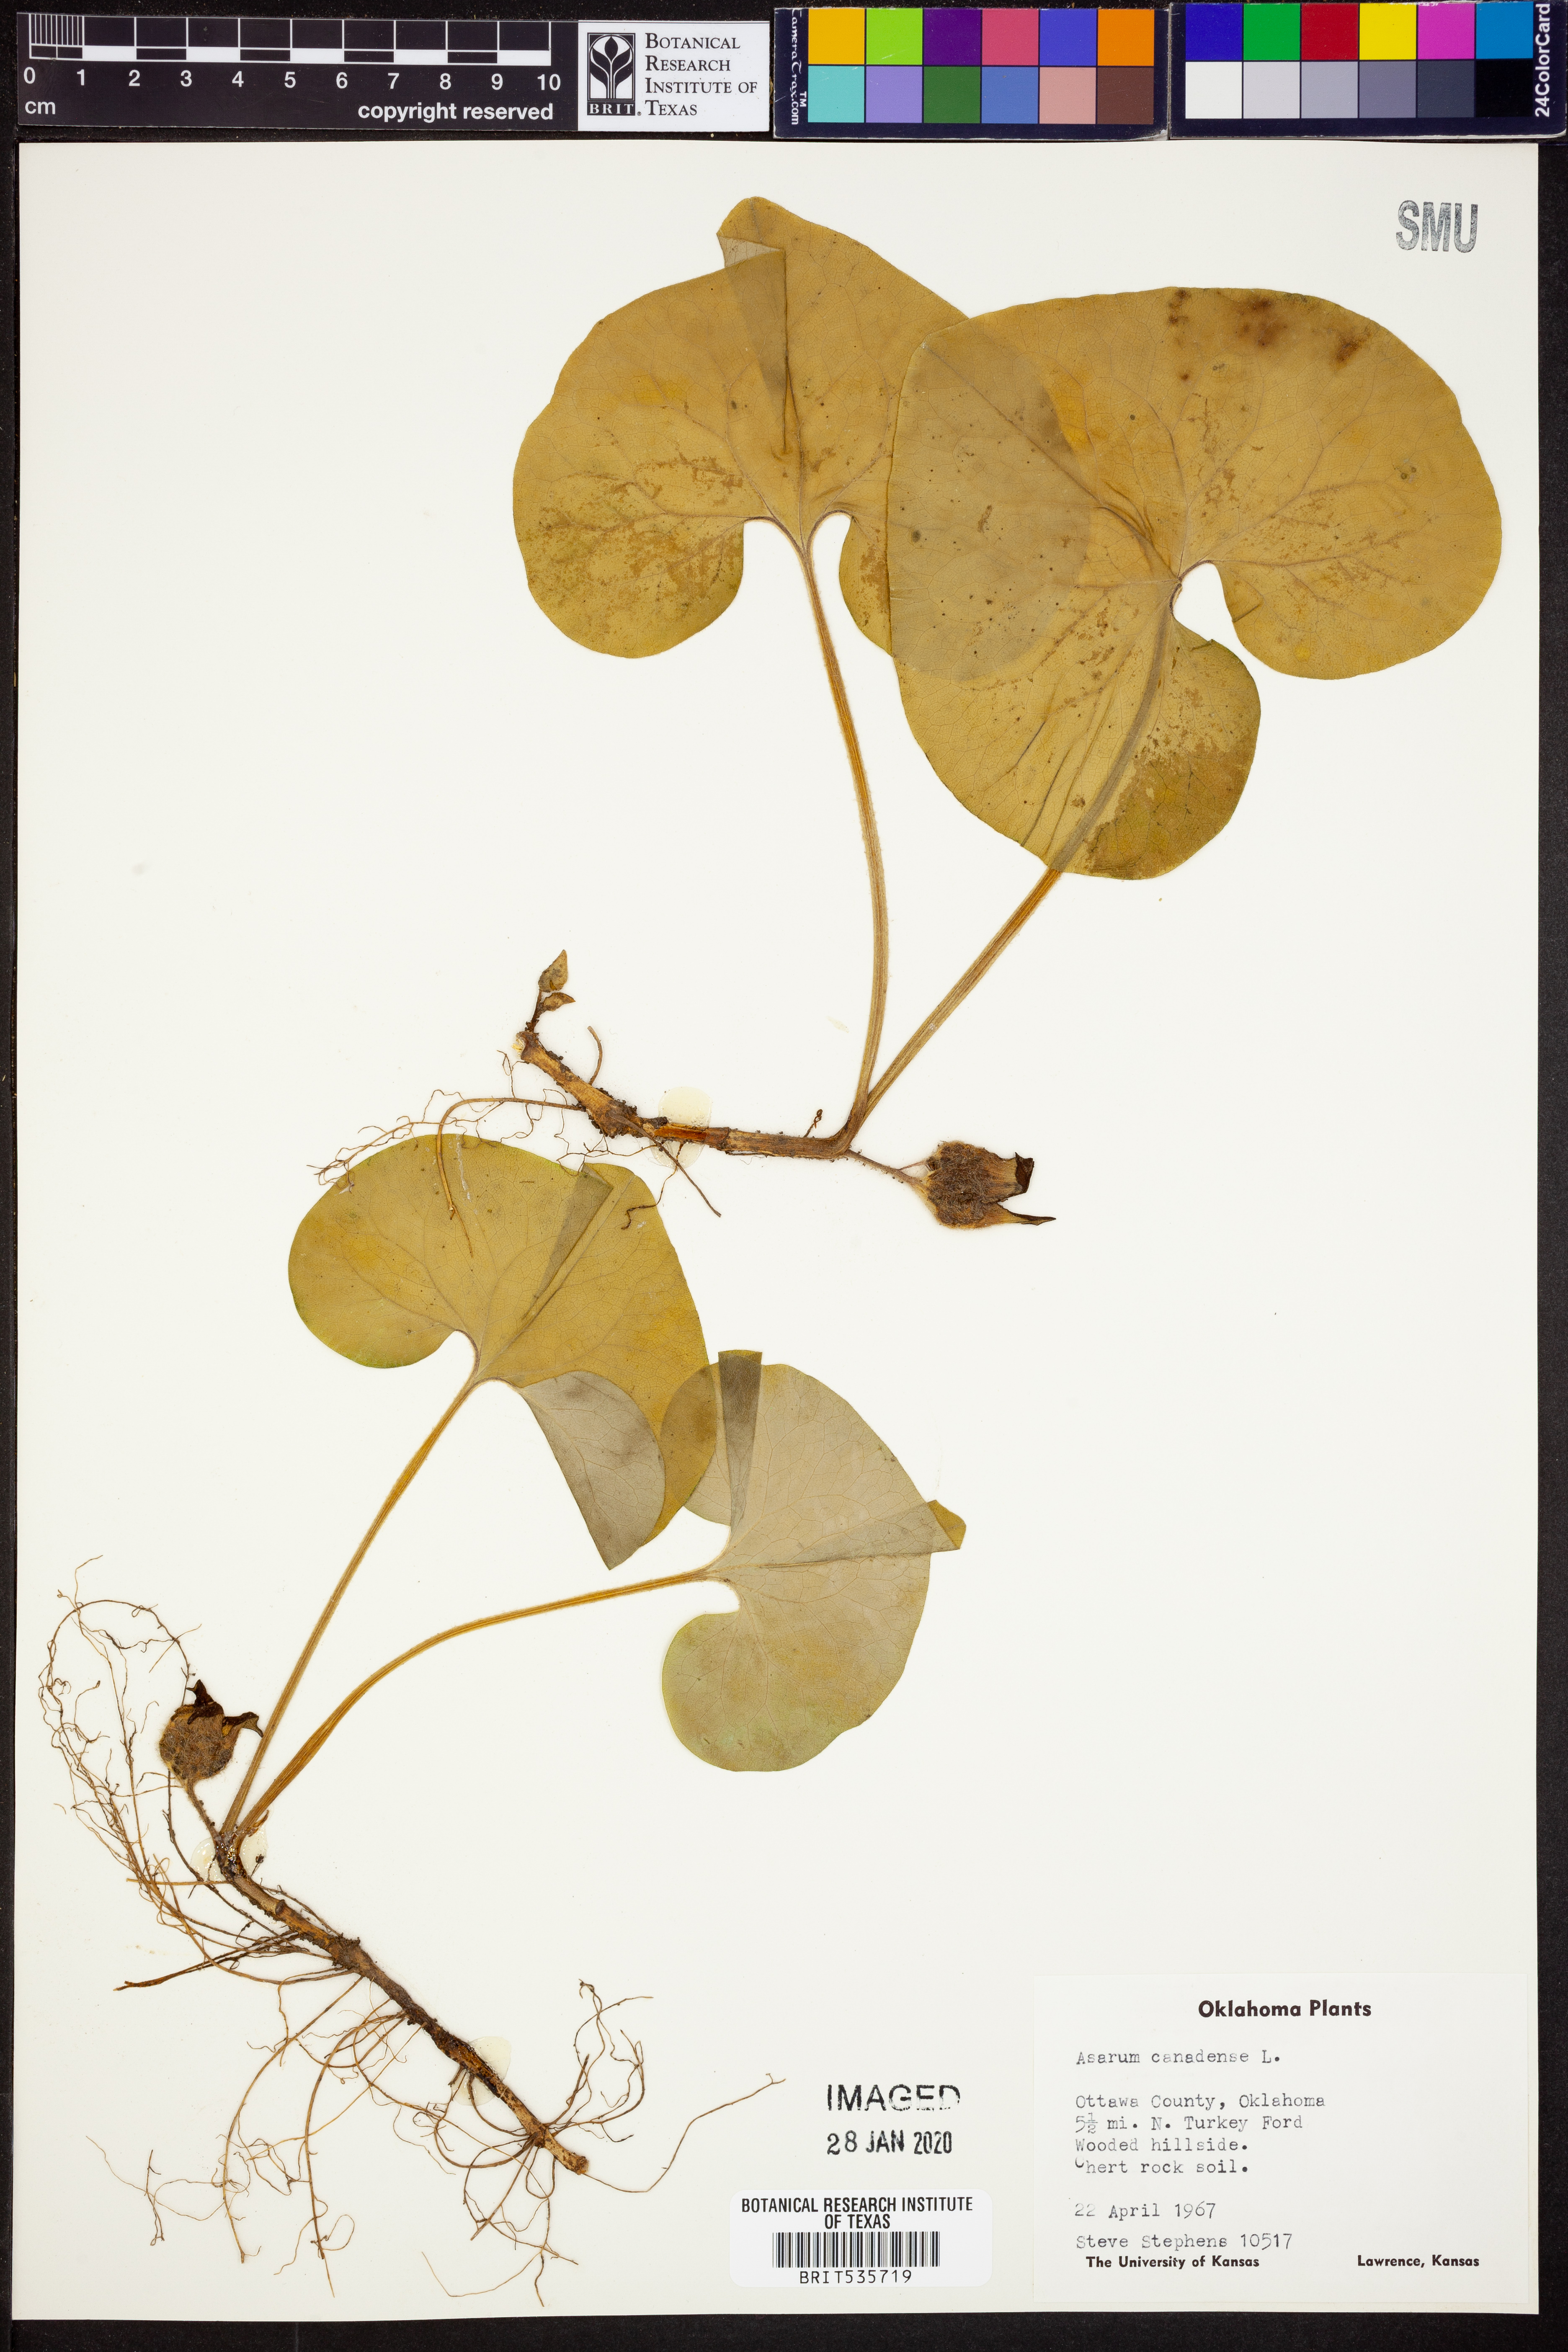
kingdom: Plantae
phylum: Tracheophyta
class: Magnoliopsida
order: Piperales
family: Aristolochiaceae
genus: Asarum
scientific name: Asarum canadense
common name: Wild ginger
